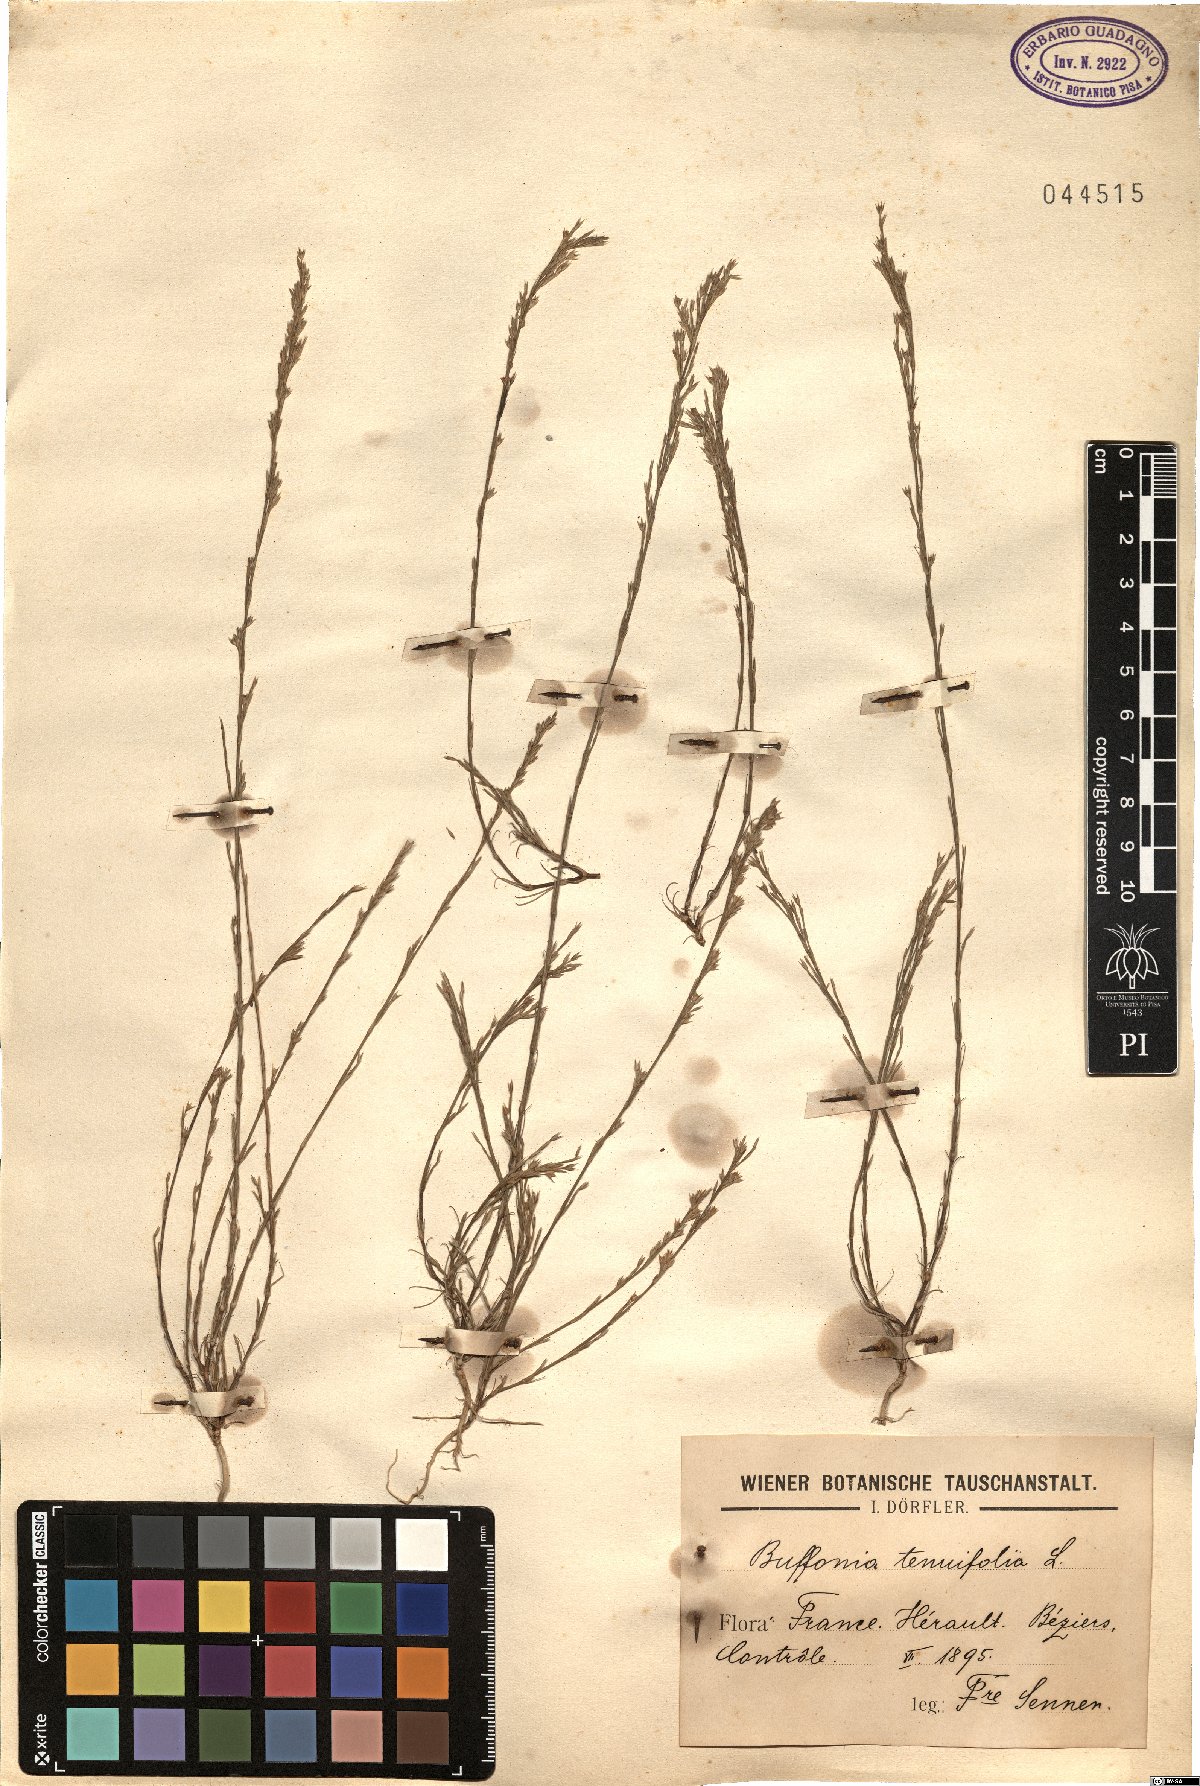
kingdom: Plantae
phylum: Tracheophyta
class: Magnoliopsida
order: Caryophyllales
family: Caryophyllaceae
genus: Bufonia
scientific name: Bufonia tenuifolia
